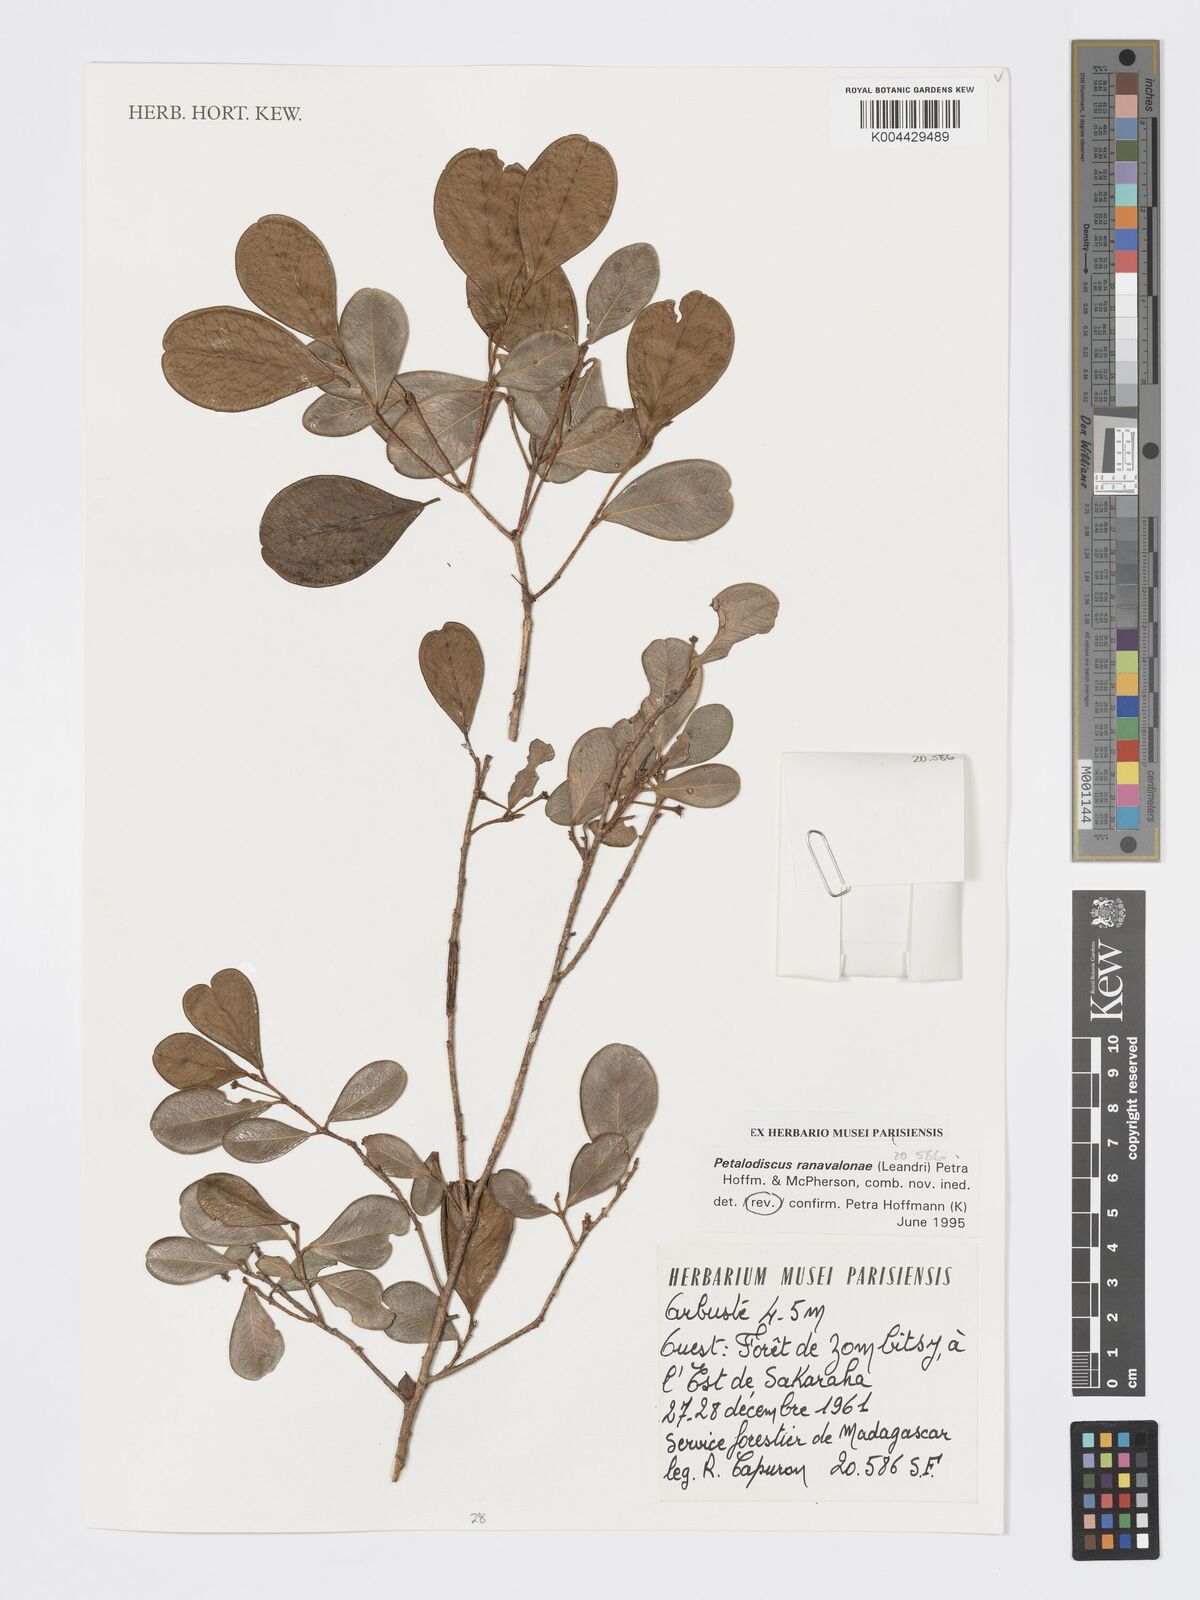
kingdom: Plantae
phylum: Tracheophyta
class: Magnoliopsida
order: Malpighiales
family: Phyllanthaceae
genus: Wielandia
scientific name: Wielandia ranavalonae
